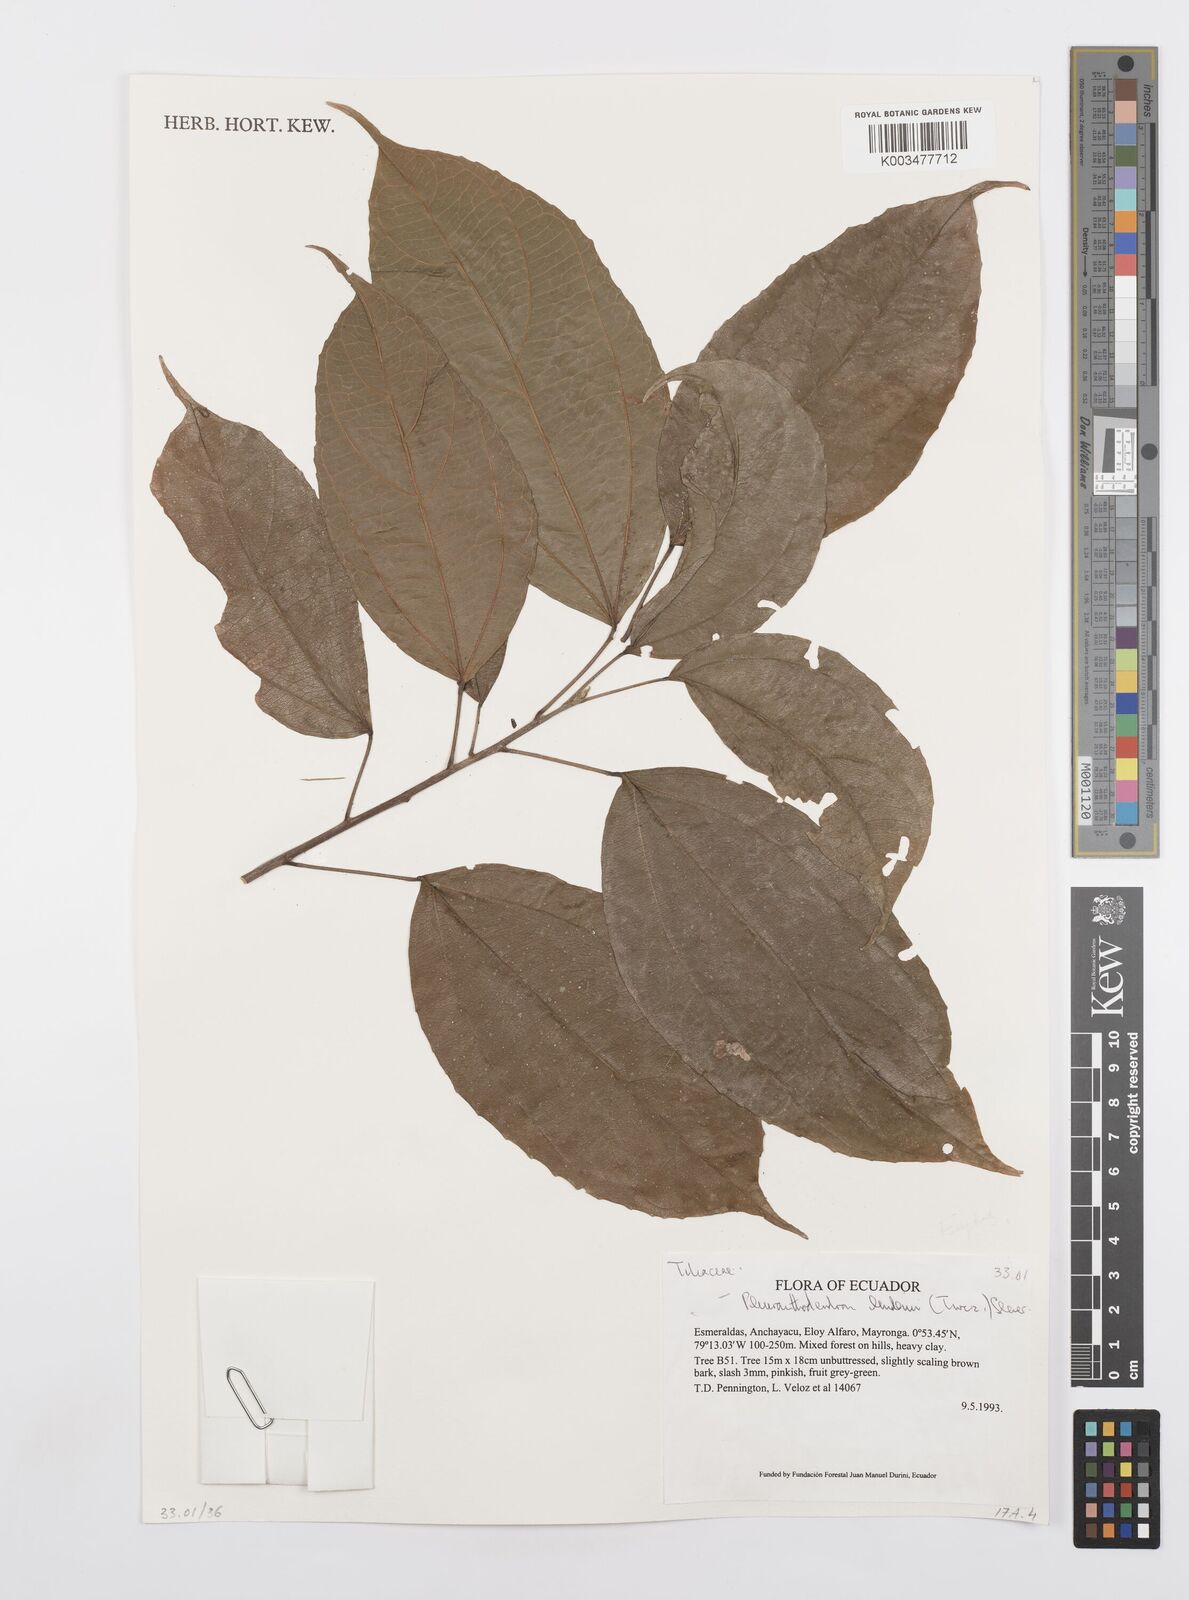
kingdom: Plantae
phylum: Tracheophyta
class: Magnoliopsida
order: Malpighiales
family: Salicaceae
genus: Pleuranthodendron
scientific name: Pleuranthodendron lindenii
